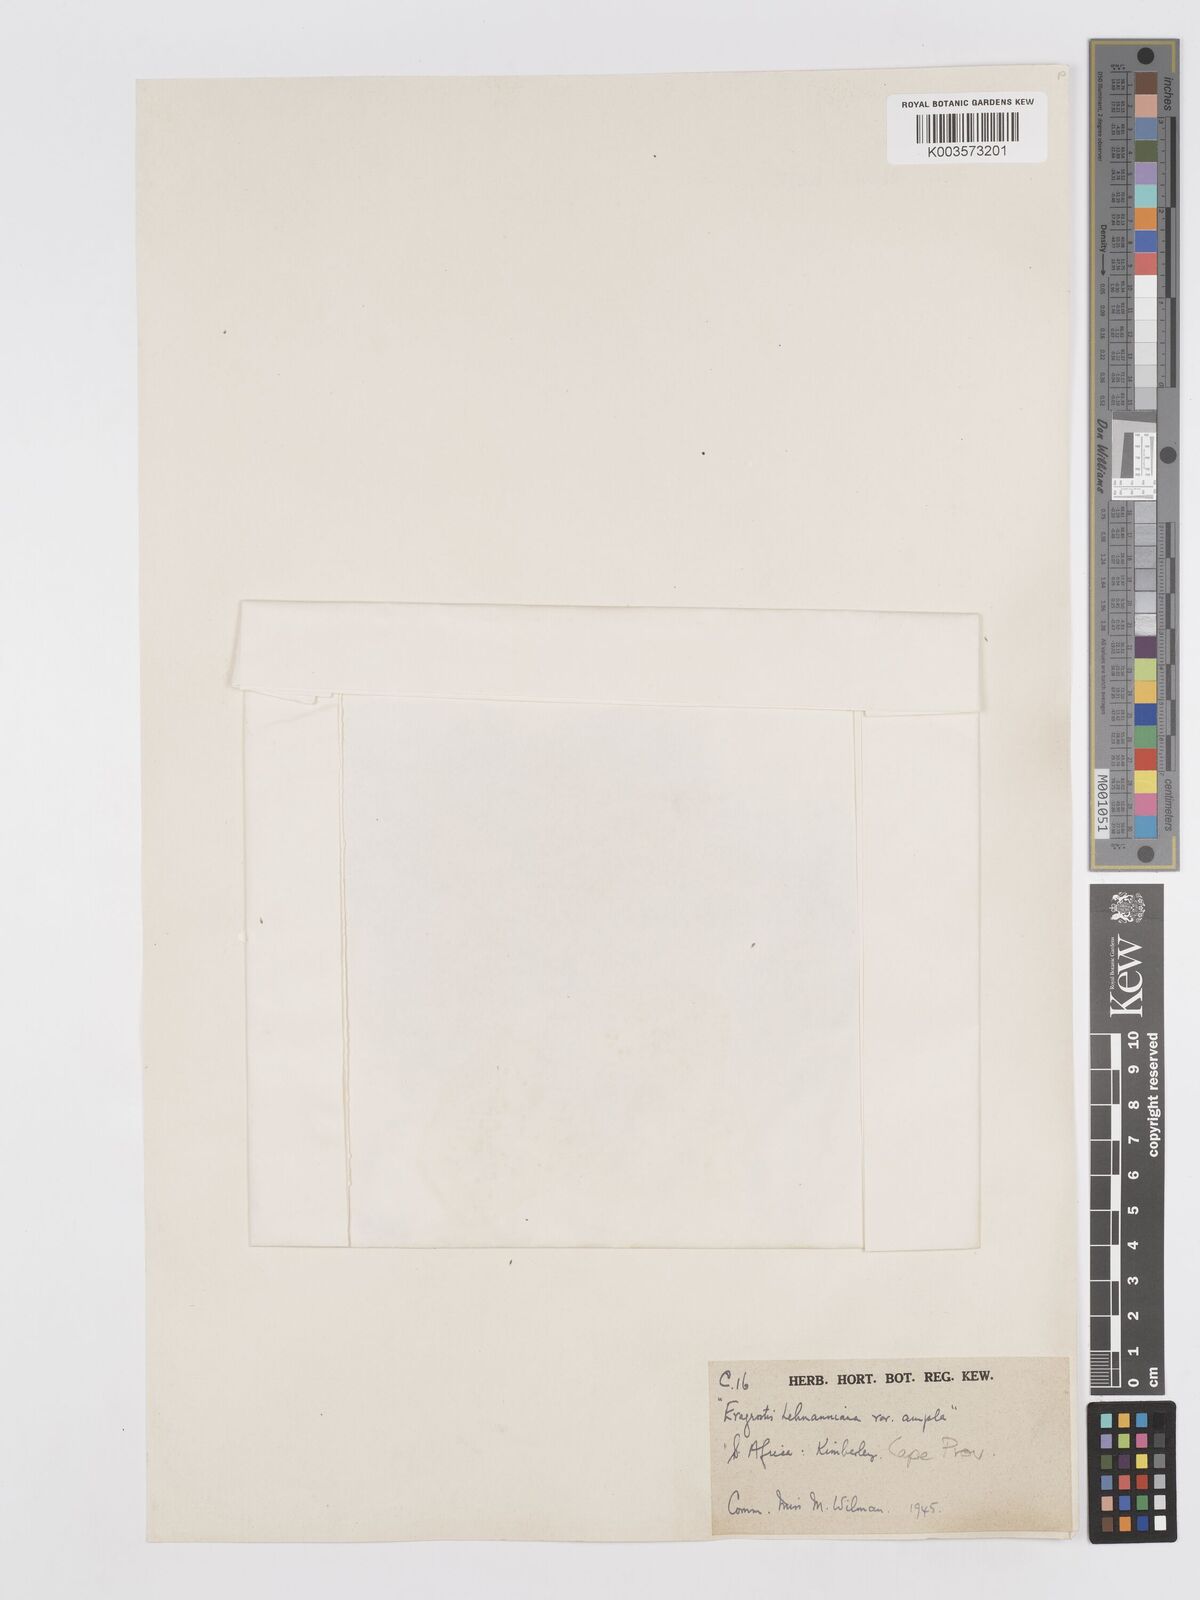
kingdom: Plantae
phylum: Tracheophyta
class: Liliopsida
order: Poales
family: Poaceae
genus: Eragrostis
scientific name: Eragrostis curvula
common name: African love-grass
